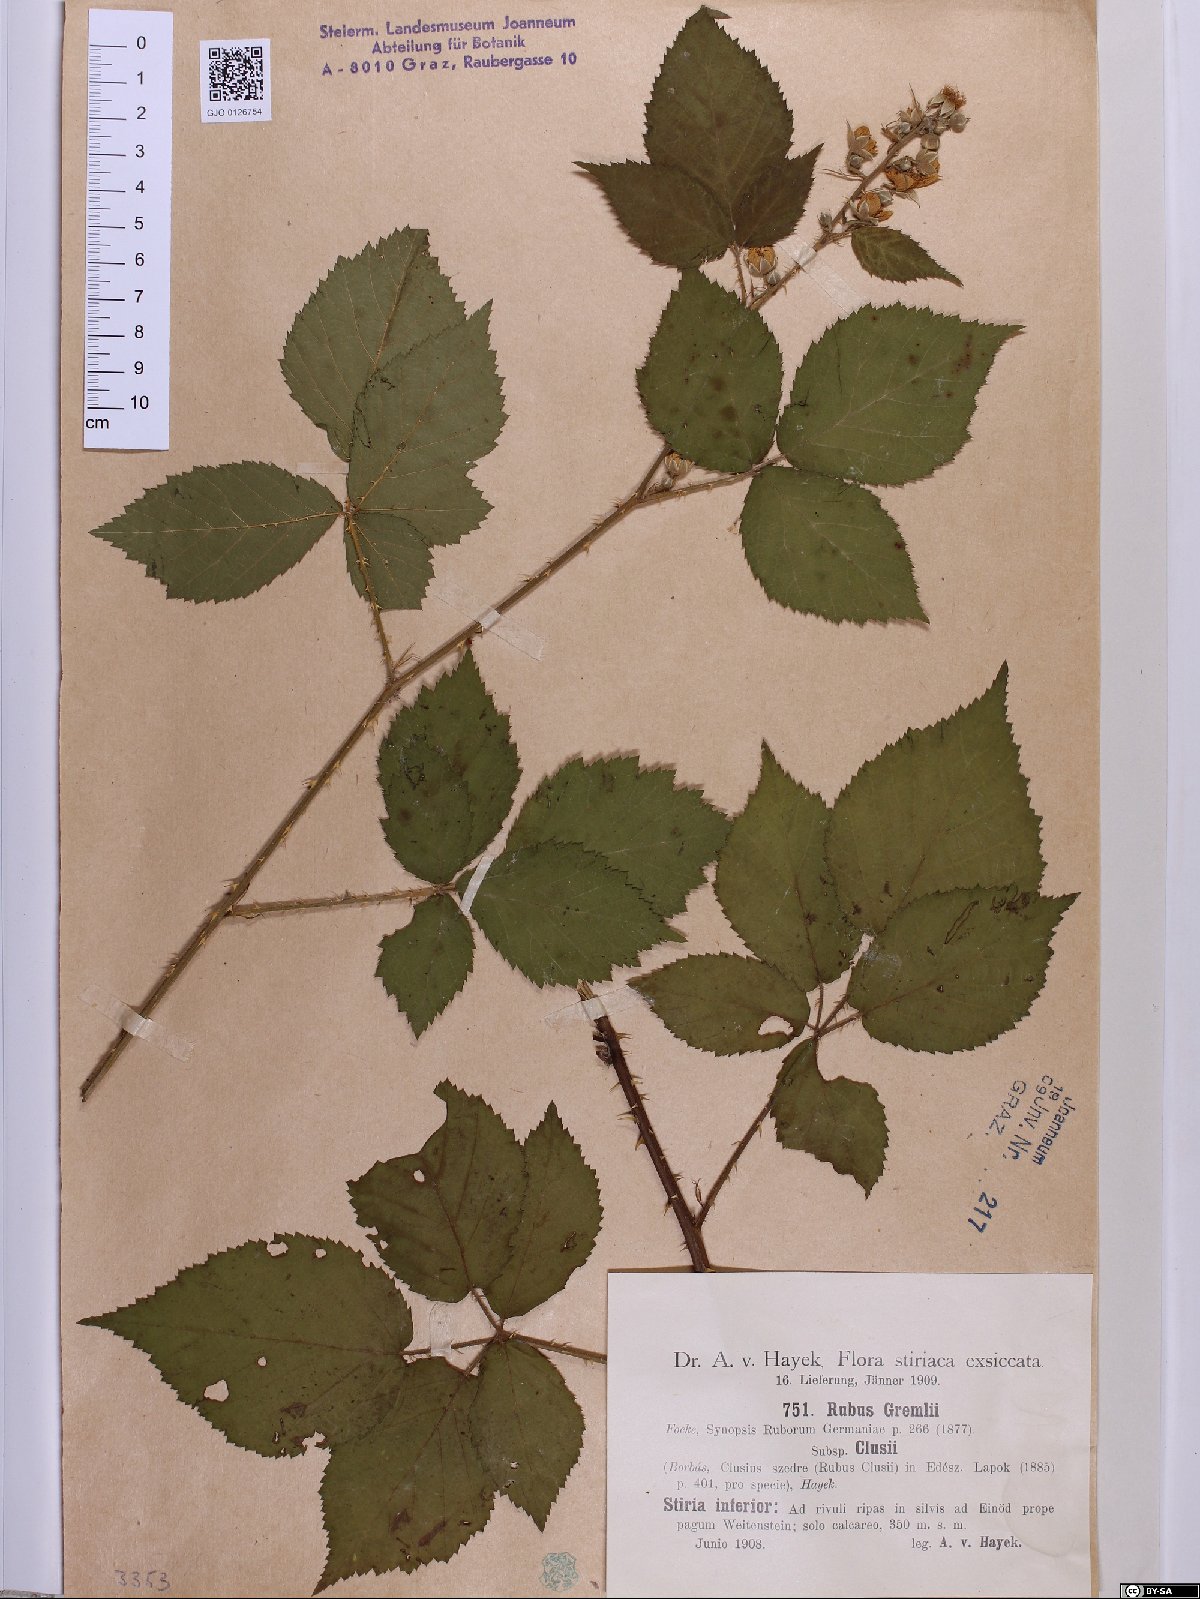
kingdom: Plantae
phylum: Tracheophyta
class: Magnoliopsida
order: Rosales
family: Rosaceae
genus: Rubus
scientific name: Rubus gremlii
